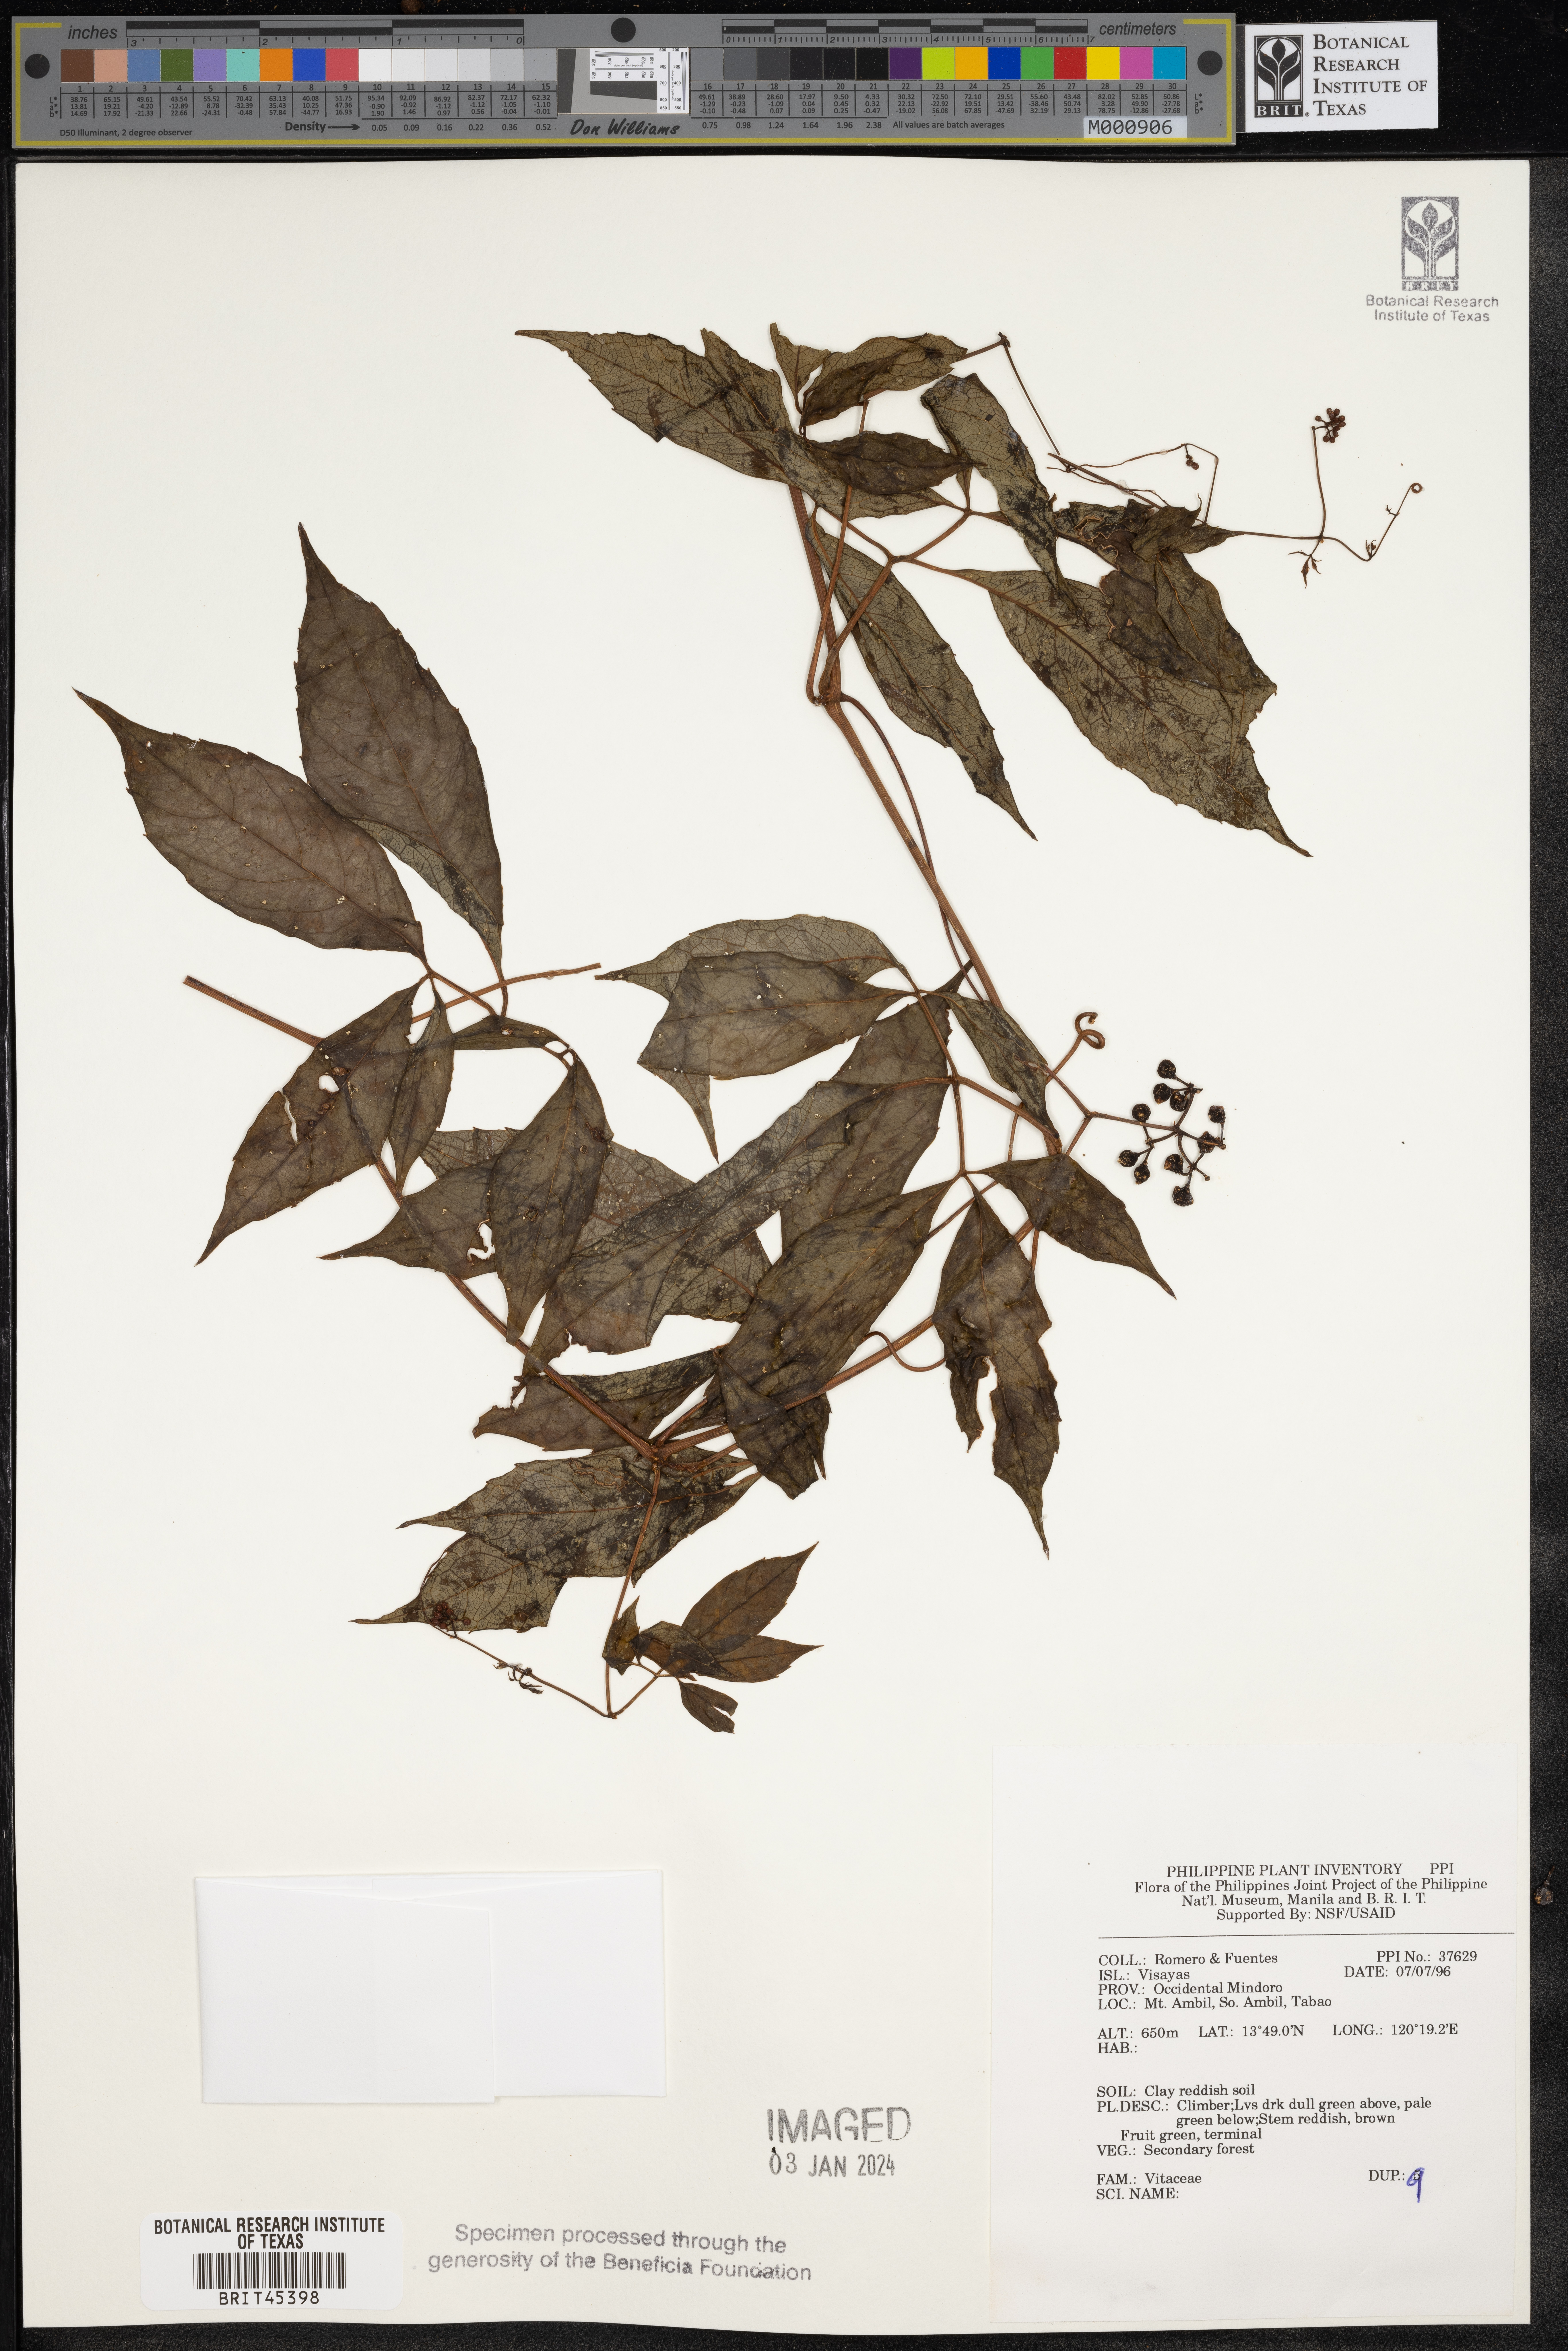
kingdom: Plantae
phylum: Tracheophyta
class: Magnoliopsida
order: Vitales
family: Vitaceae
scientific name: Vitaceae
